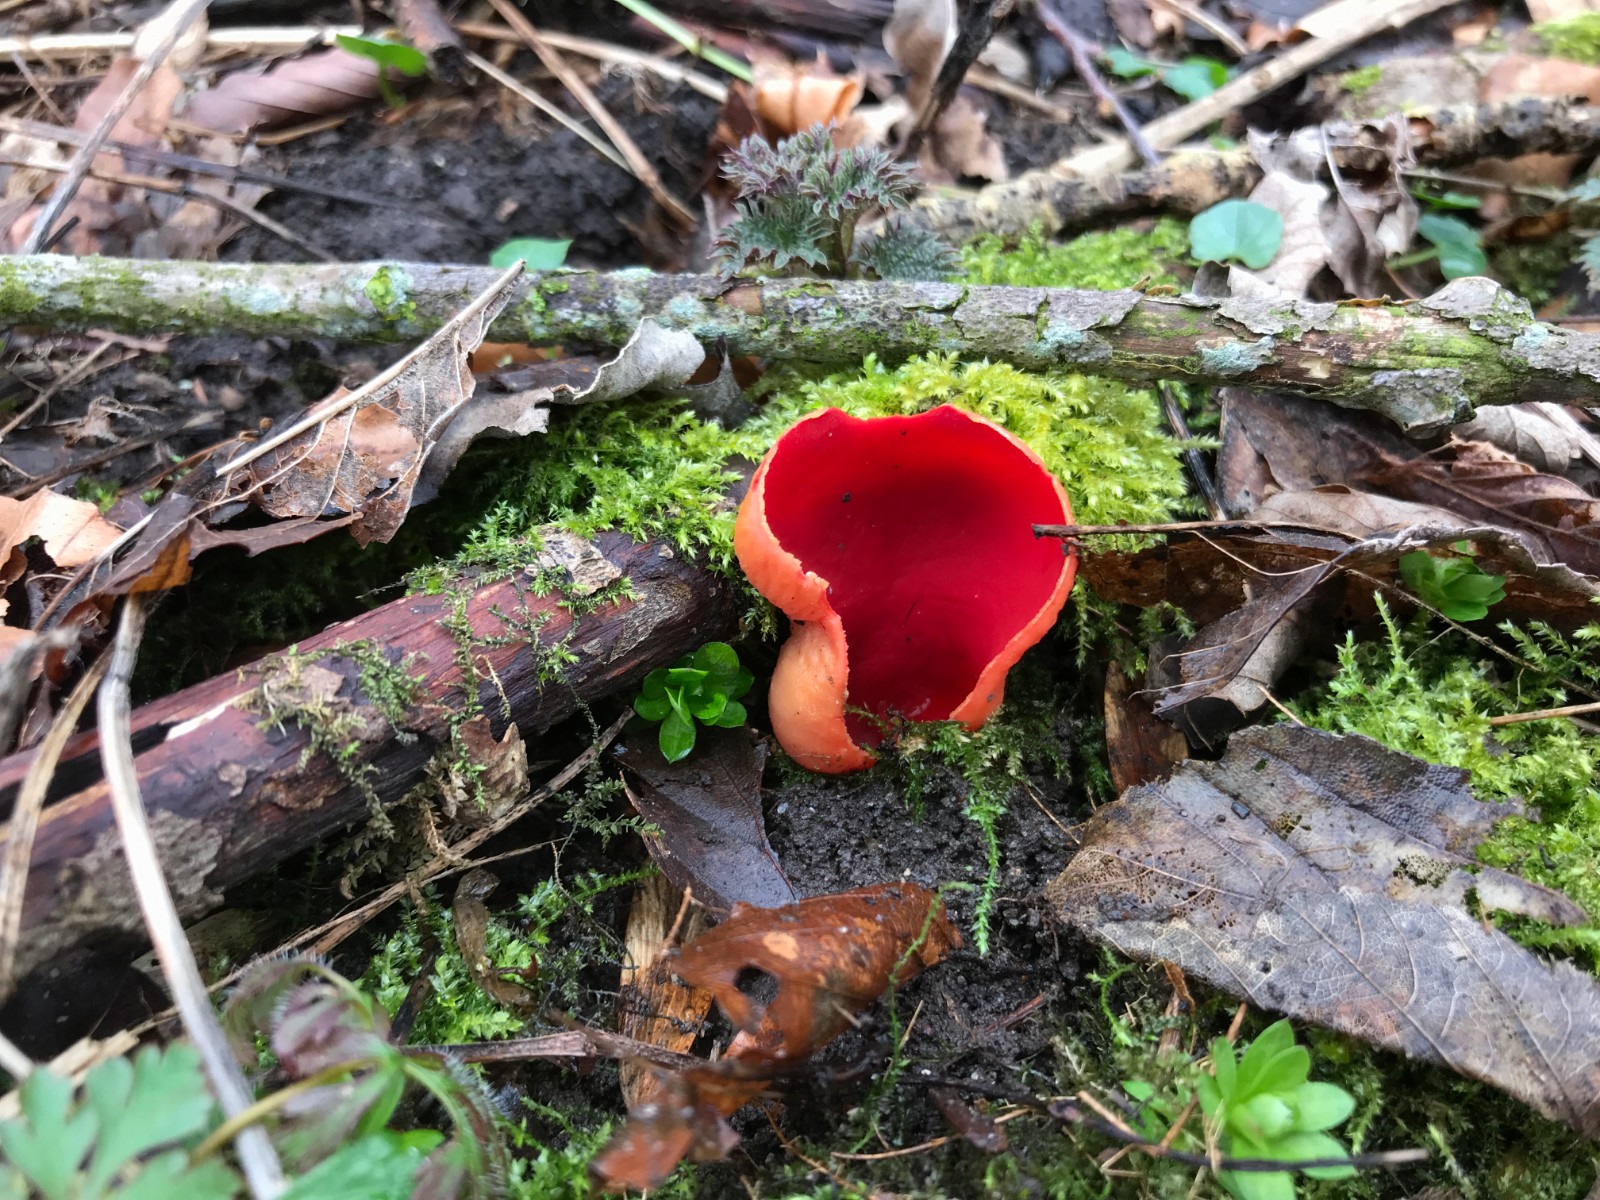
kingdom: Fungi
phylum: Ascomycota
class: Pezizomycetes
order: Pezizales
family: Sarcoscyphaceae
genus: Sarcoscypha
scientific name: Sarcoscypha austriaca
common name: krølhåret pragtbæger
